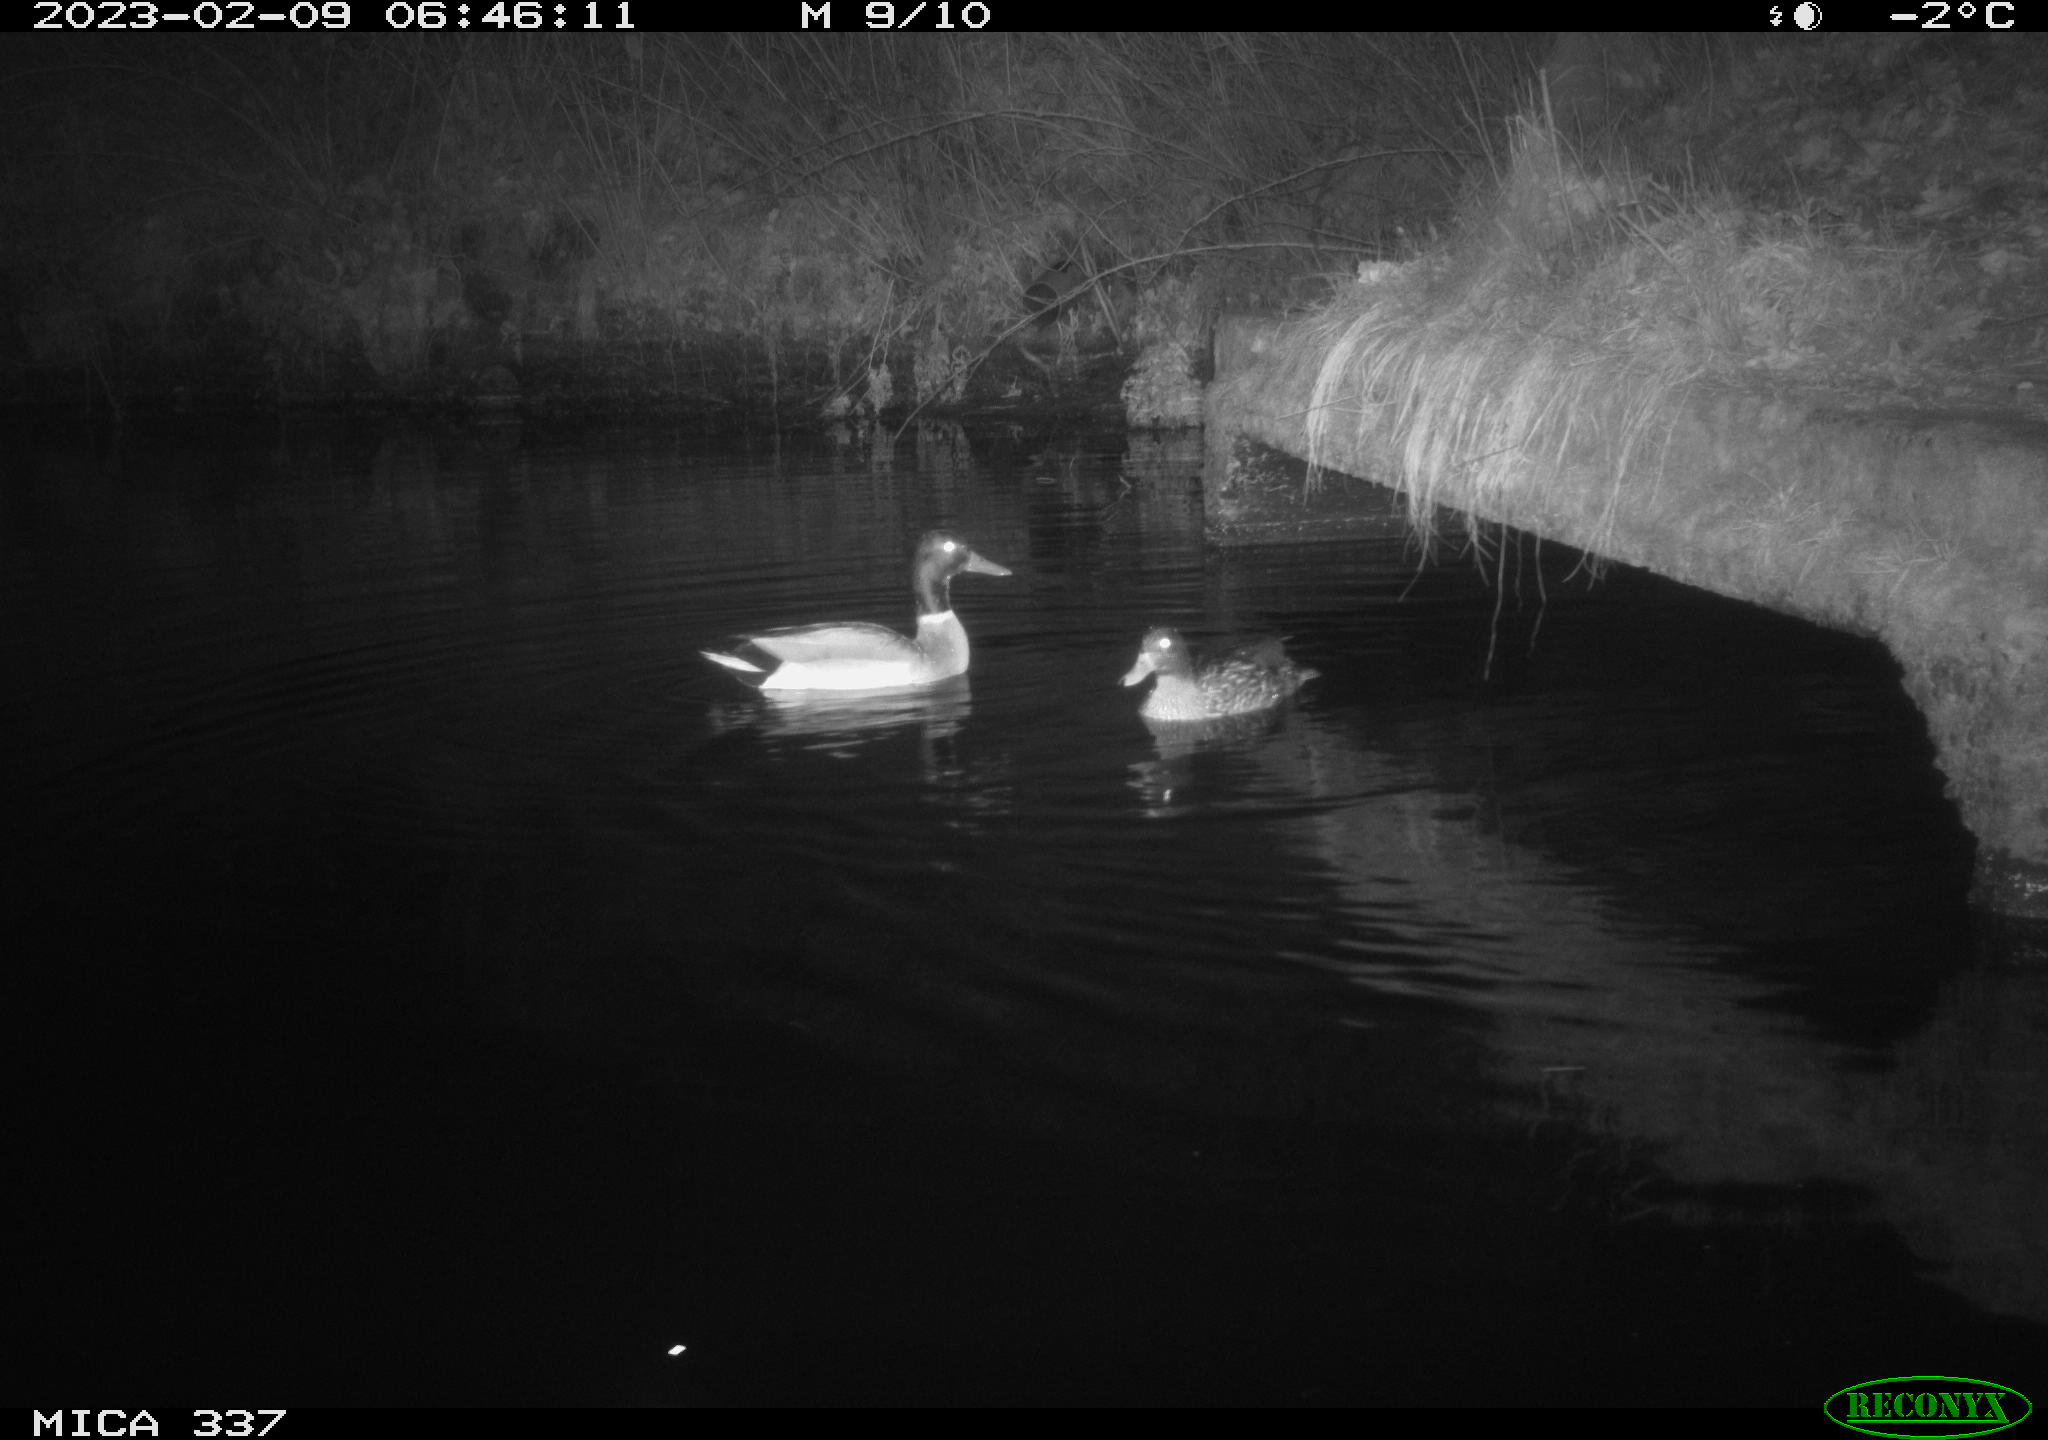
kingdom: Animalia
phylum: Chordata
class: Aves
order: Anseriformes
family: Anatidae
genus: Anas
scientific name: Anas
